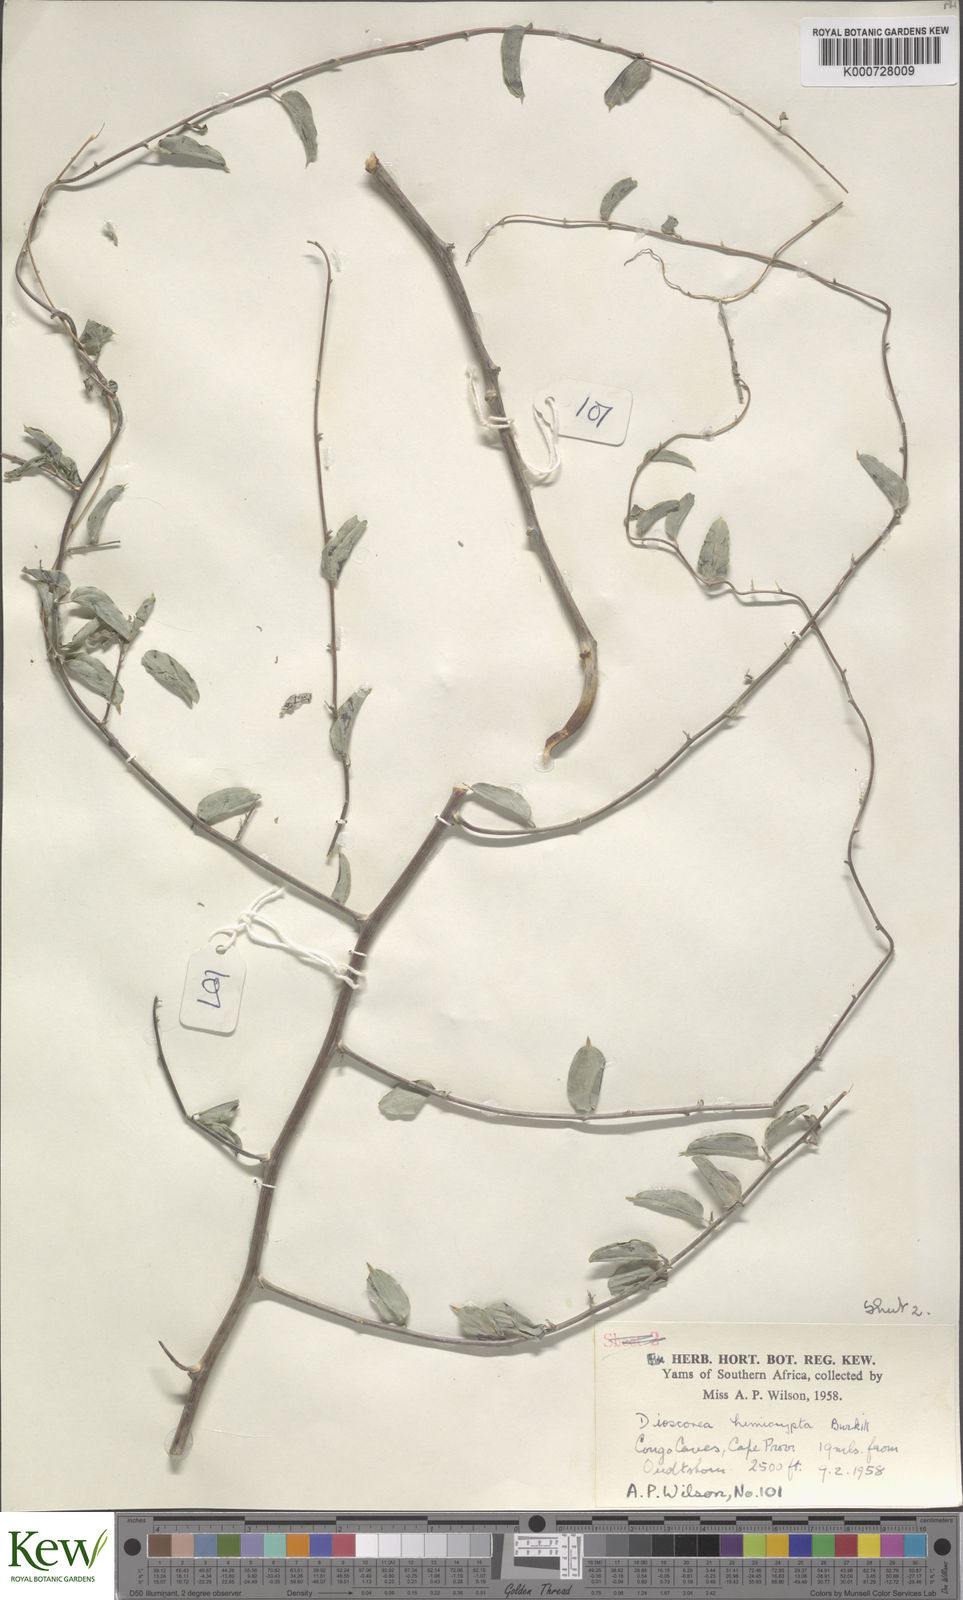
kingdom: Plantae
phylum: Tracheophyta
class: Liliopsida
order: Dioscoreales
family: Dioscoreaceae
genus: Dioscorea
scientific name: Dioscorea hemicrypta
